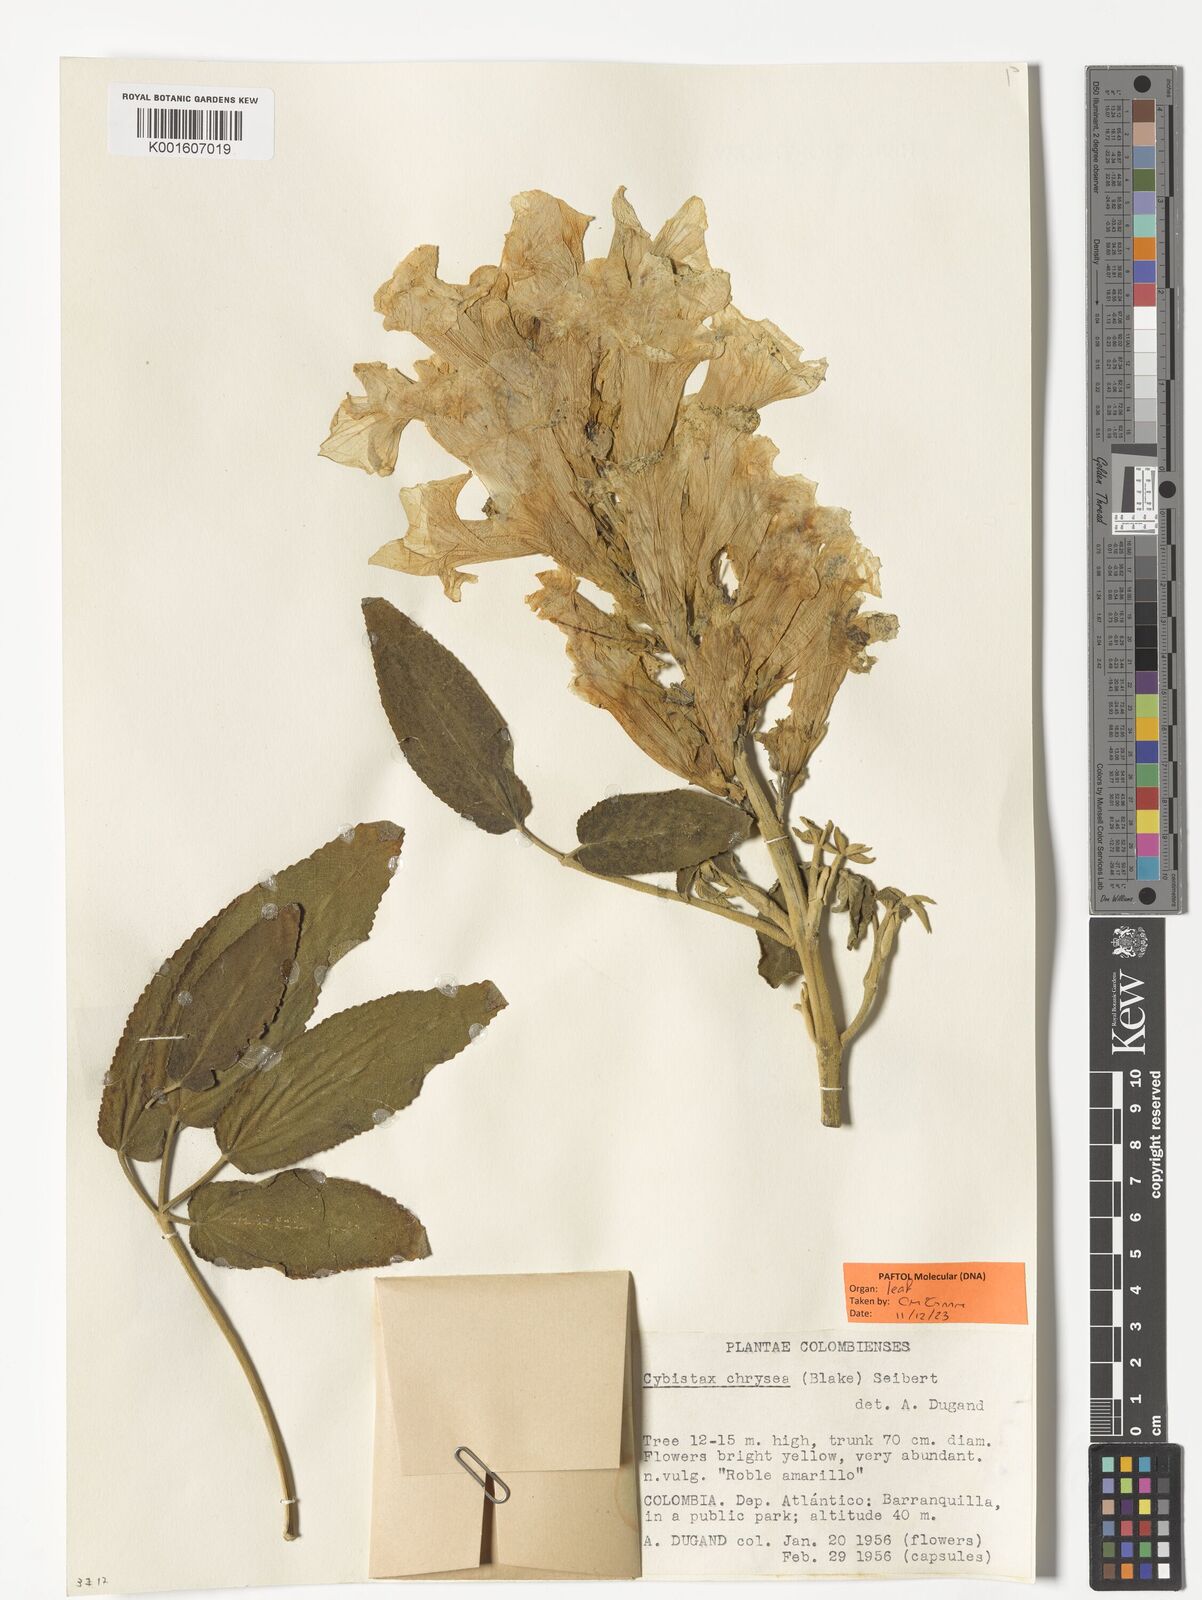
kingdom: Plantae
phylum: Tracheophyta
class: Magnoliopsida
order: Lamiales
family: Bignoniaceae
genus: Roseodendron
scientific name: Roseodendron chryseum
